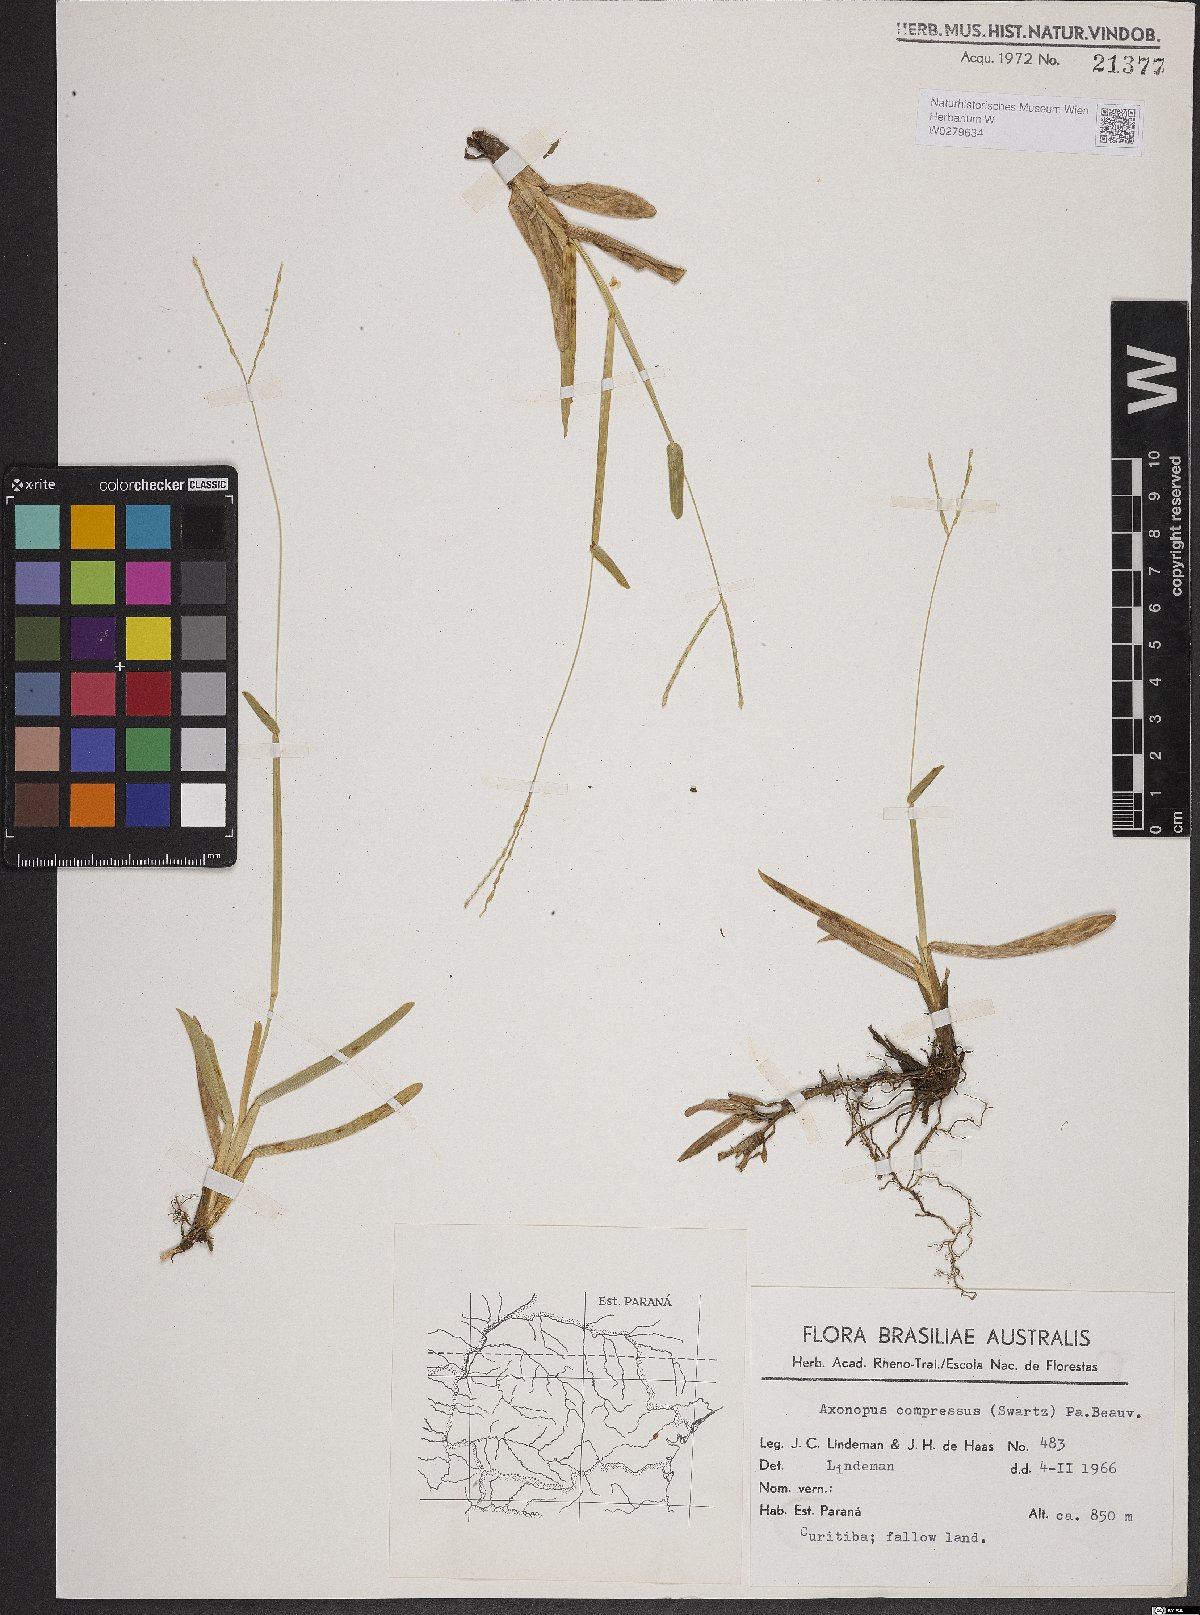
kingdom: Plantae
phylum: Tracheophyta
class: Liliopsida
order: Poales
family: Poaceae
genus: Axonopus
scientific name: Axonopus compressus
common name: American carpet grass
